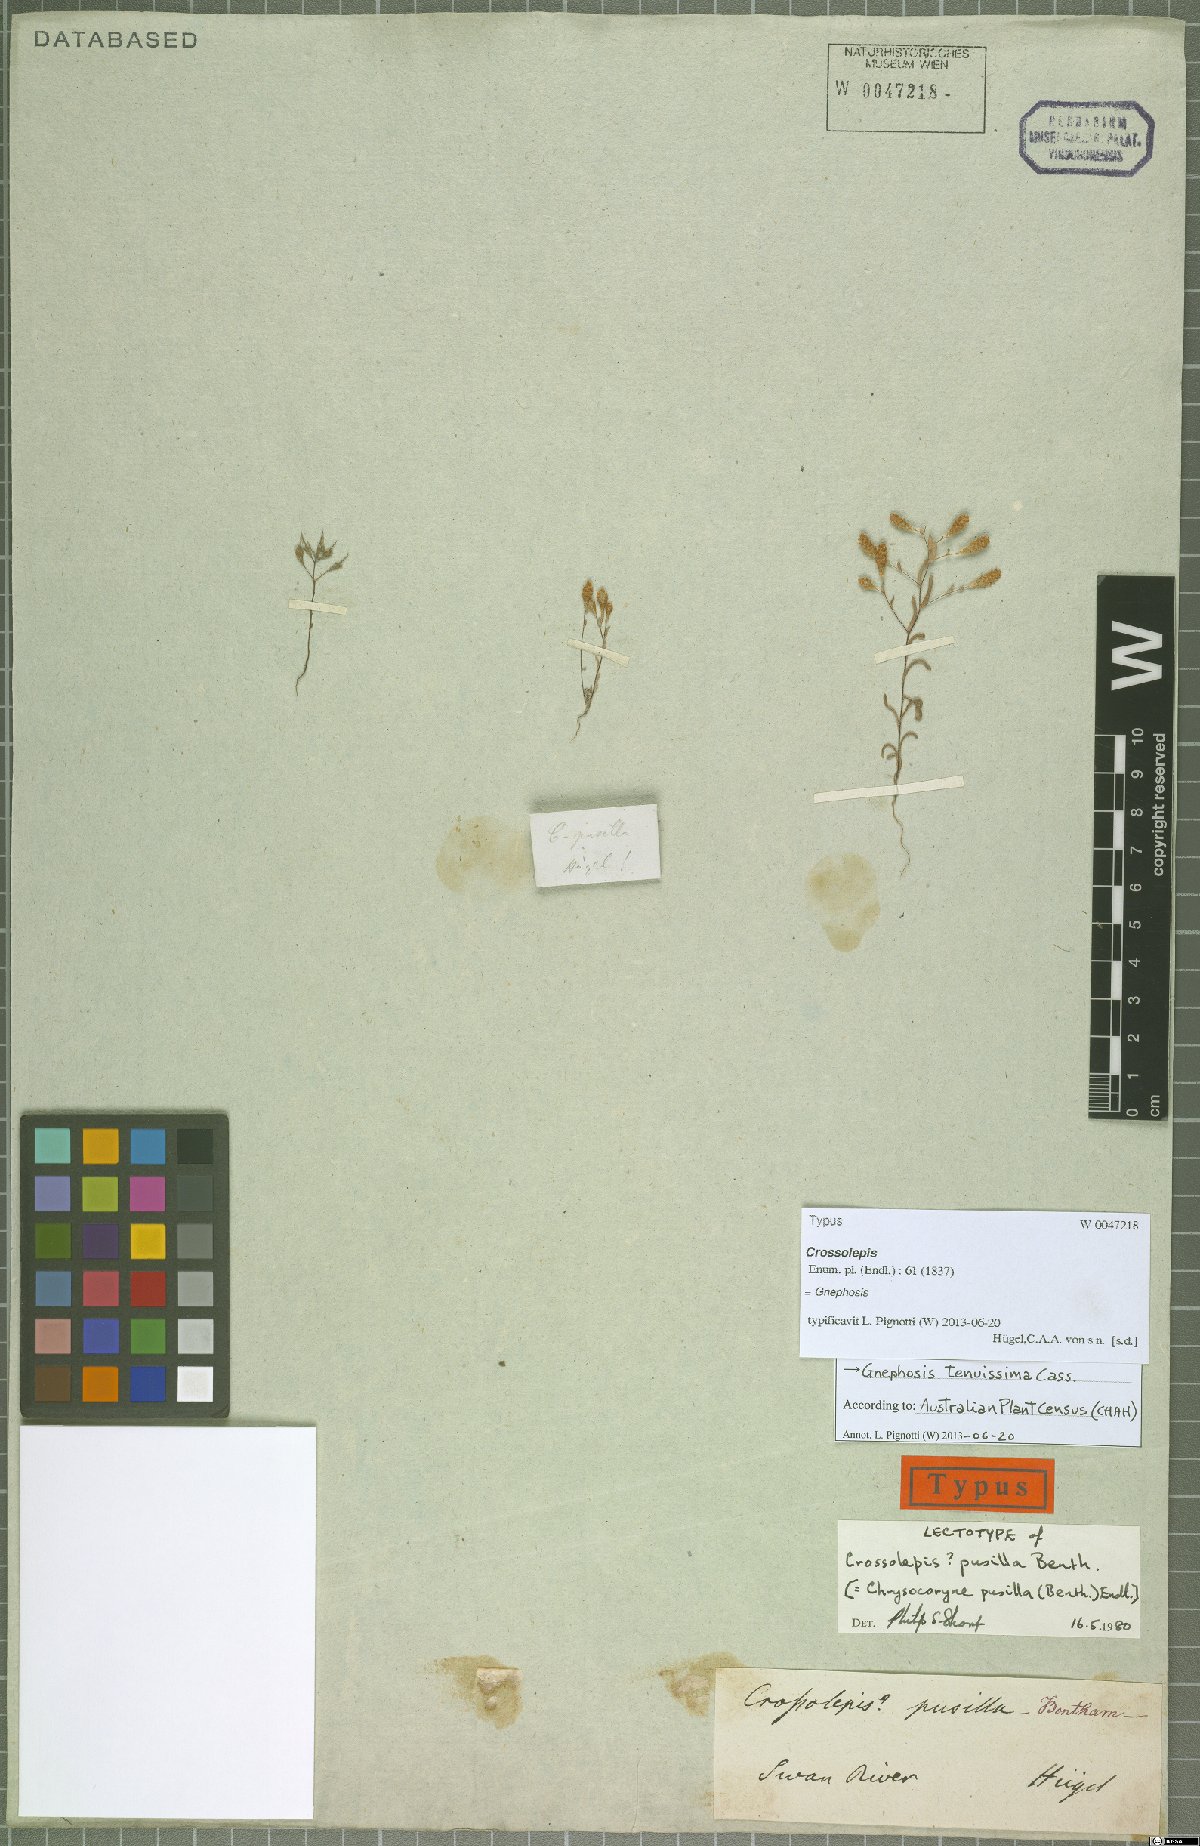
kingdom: Plantae
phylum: Tracheophyta
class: Magnoliopsida
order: Asterales
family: Asteraceae
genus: Gnephosis
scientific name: Gnephosis tenuissima
